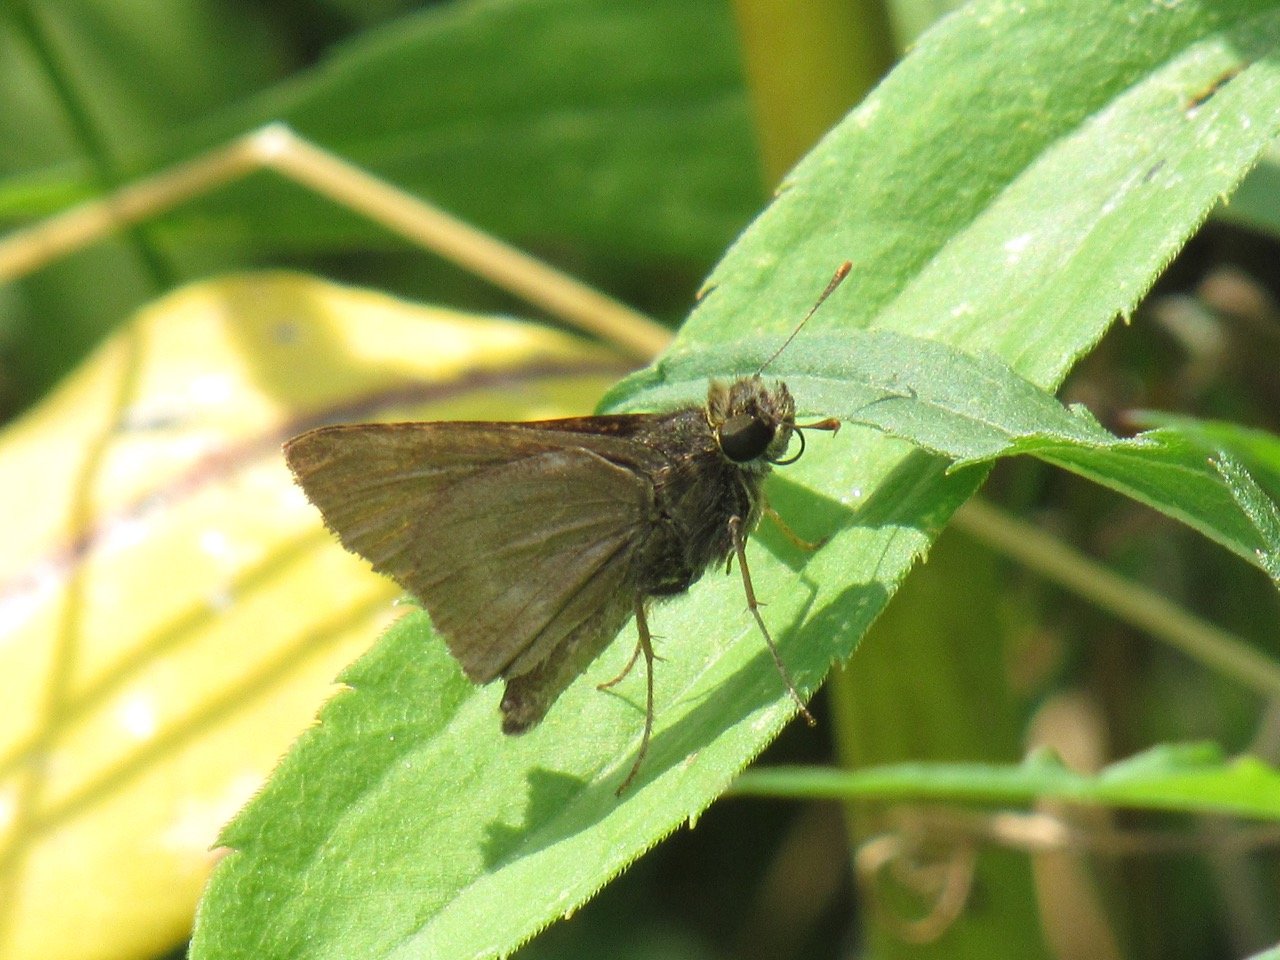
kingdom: Animalia
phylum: Arthropoda
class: Insecta
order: Lepidoptera
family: Hesperiidae
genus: Polites
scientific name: Polites egeremet
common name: Northern Broken-Dash
